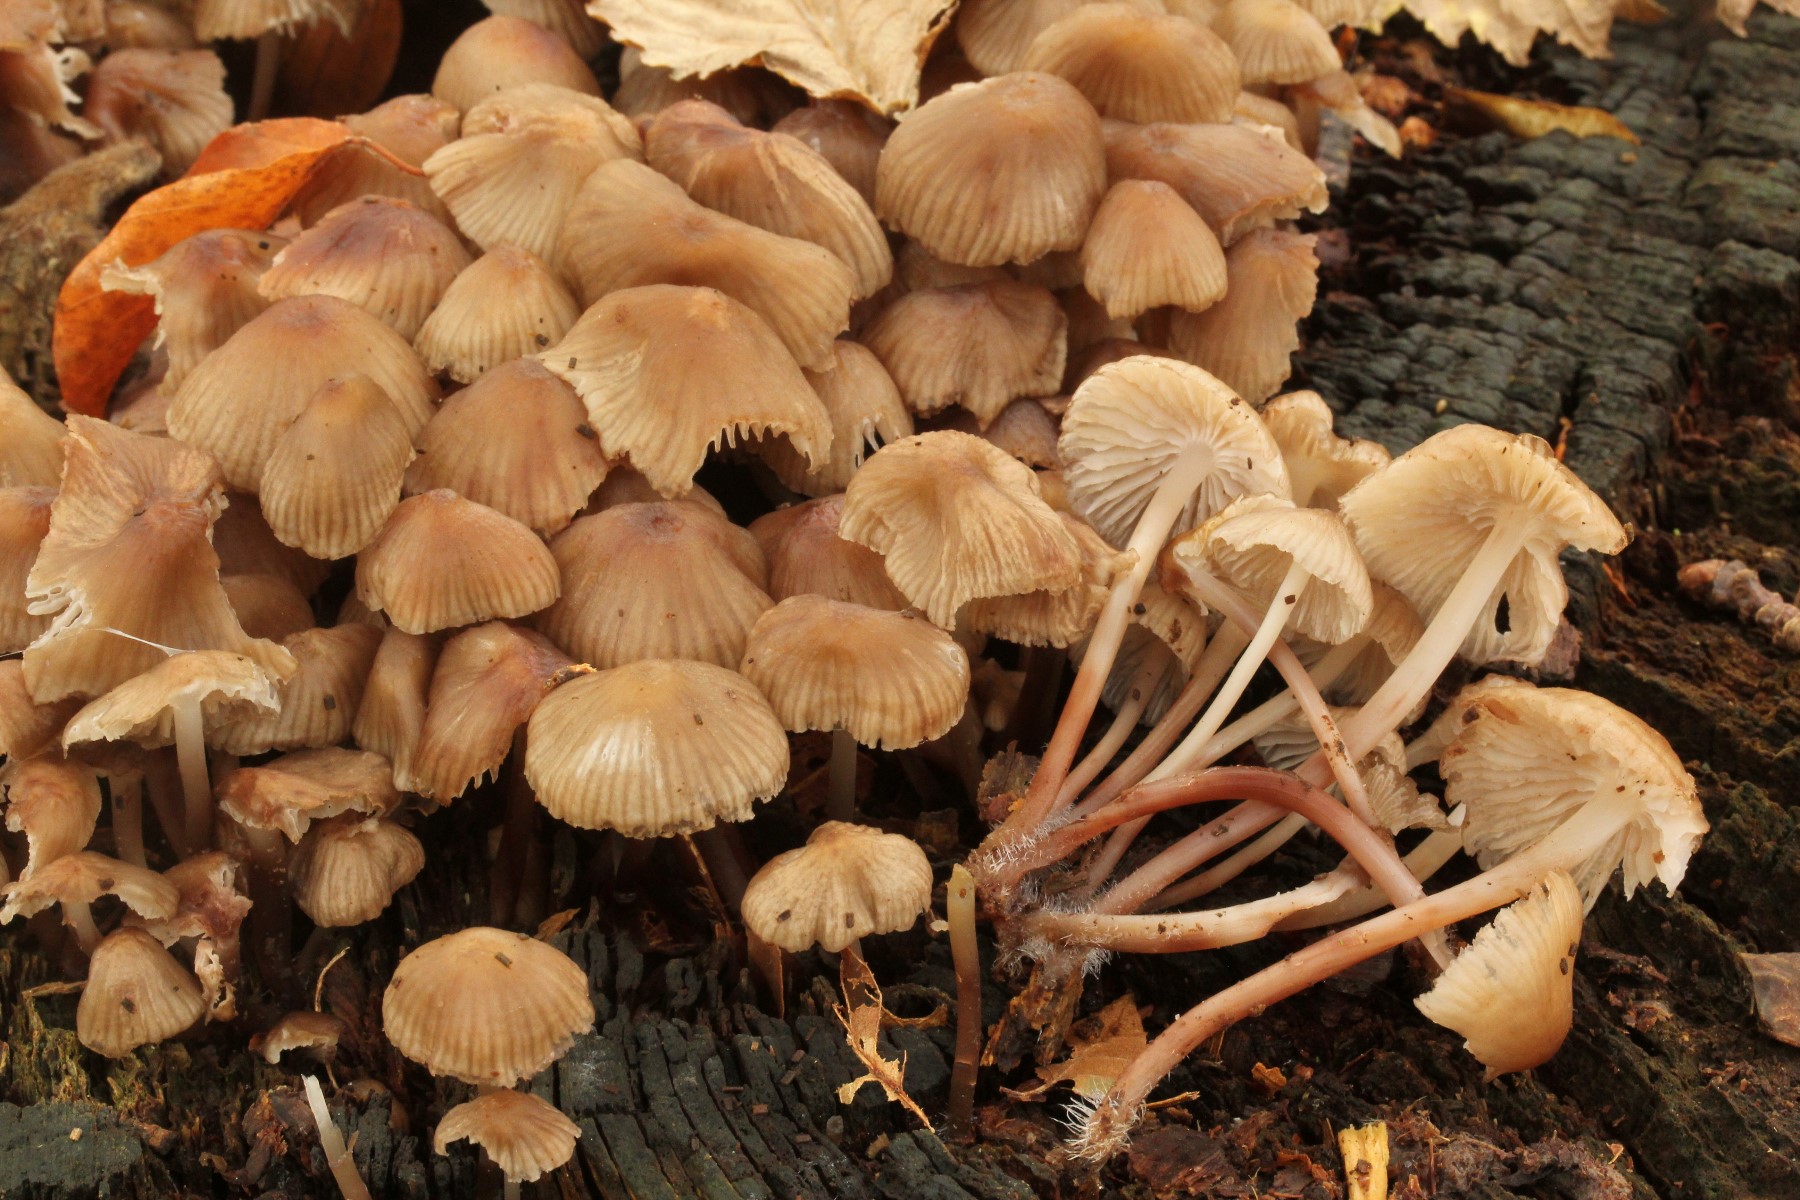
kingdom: Fungi
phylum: Basidiomycota
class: Agaricomycetes
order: Agaricales
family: Mycenaceae
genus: Mycena
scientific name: Mycena maculata
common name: rødplettet huesvamp
